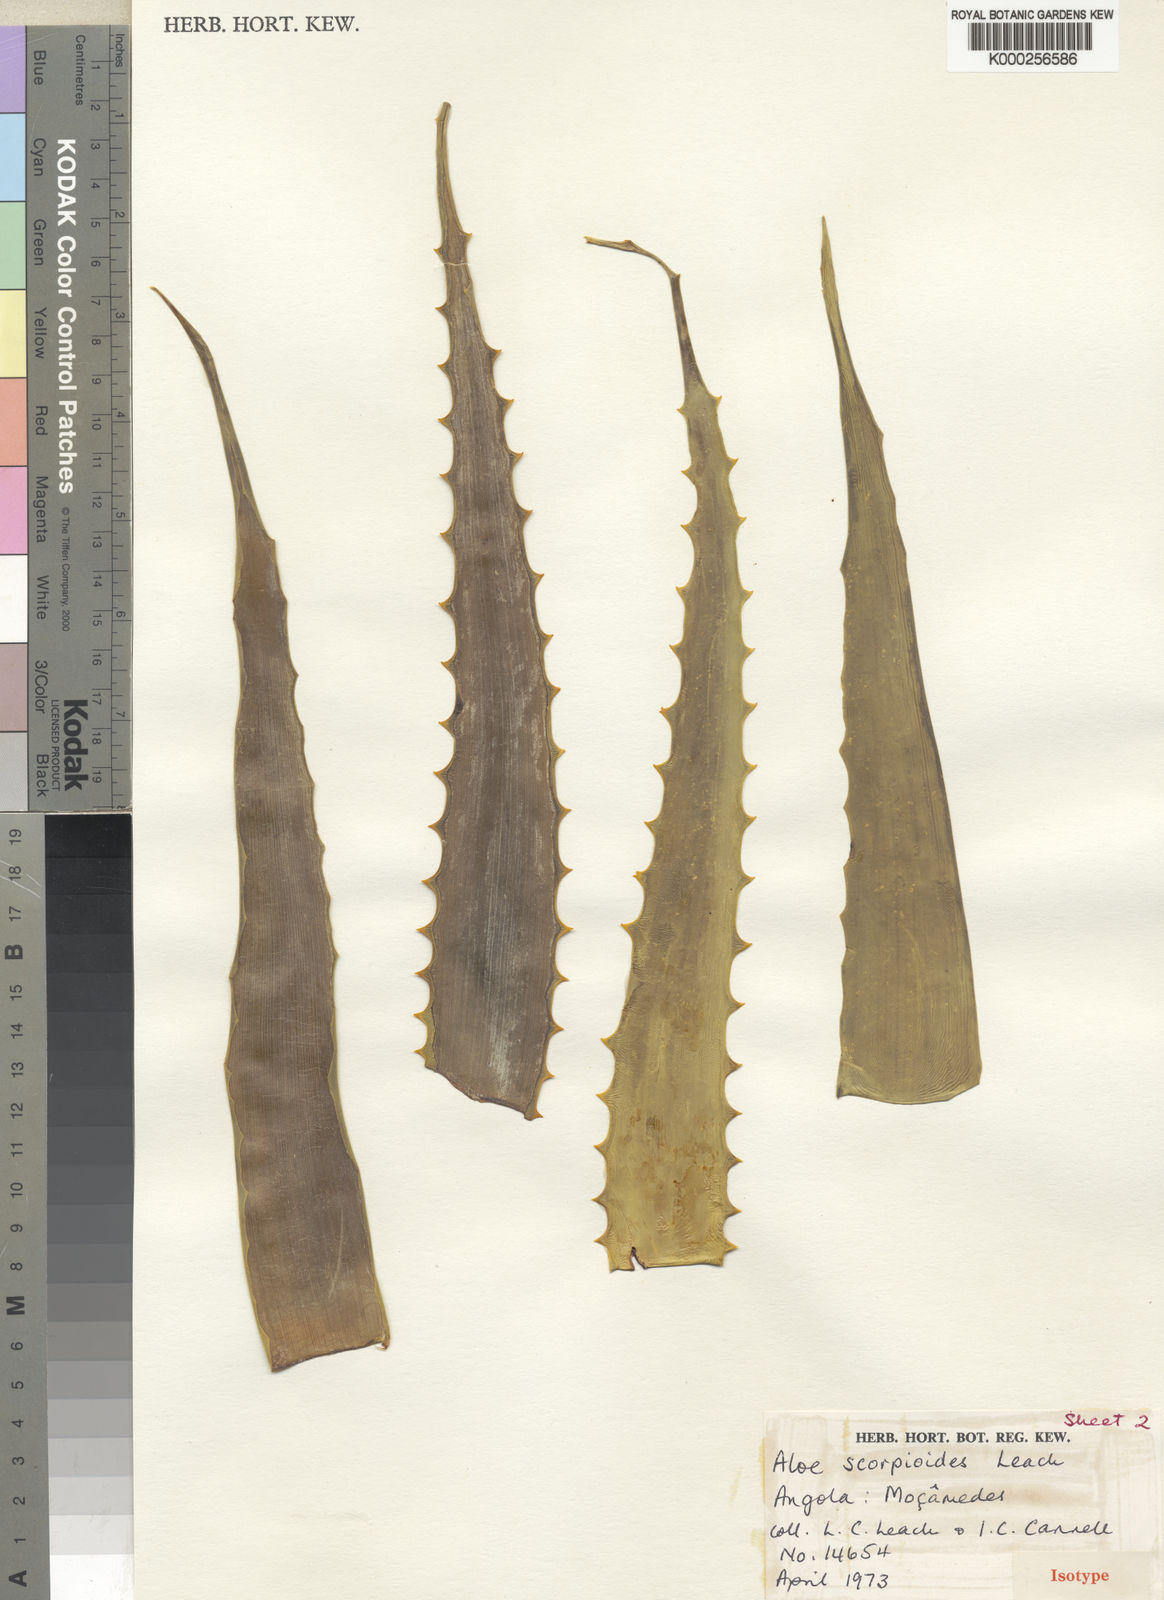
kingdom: Plantae
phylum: Tracheophyta
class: Liliopsida
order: Asparagales
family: Asphodelaceae
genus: Aloe
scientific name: Aloe scorpioides
